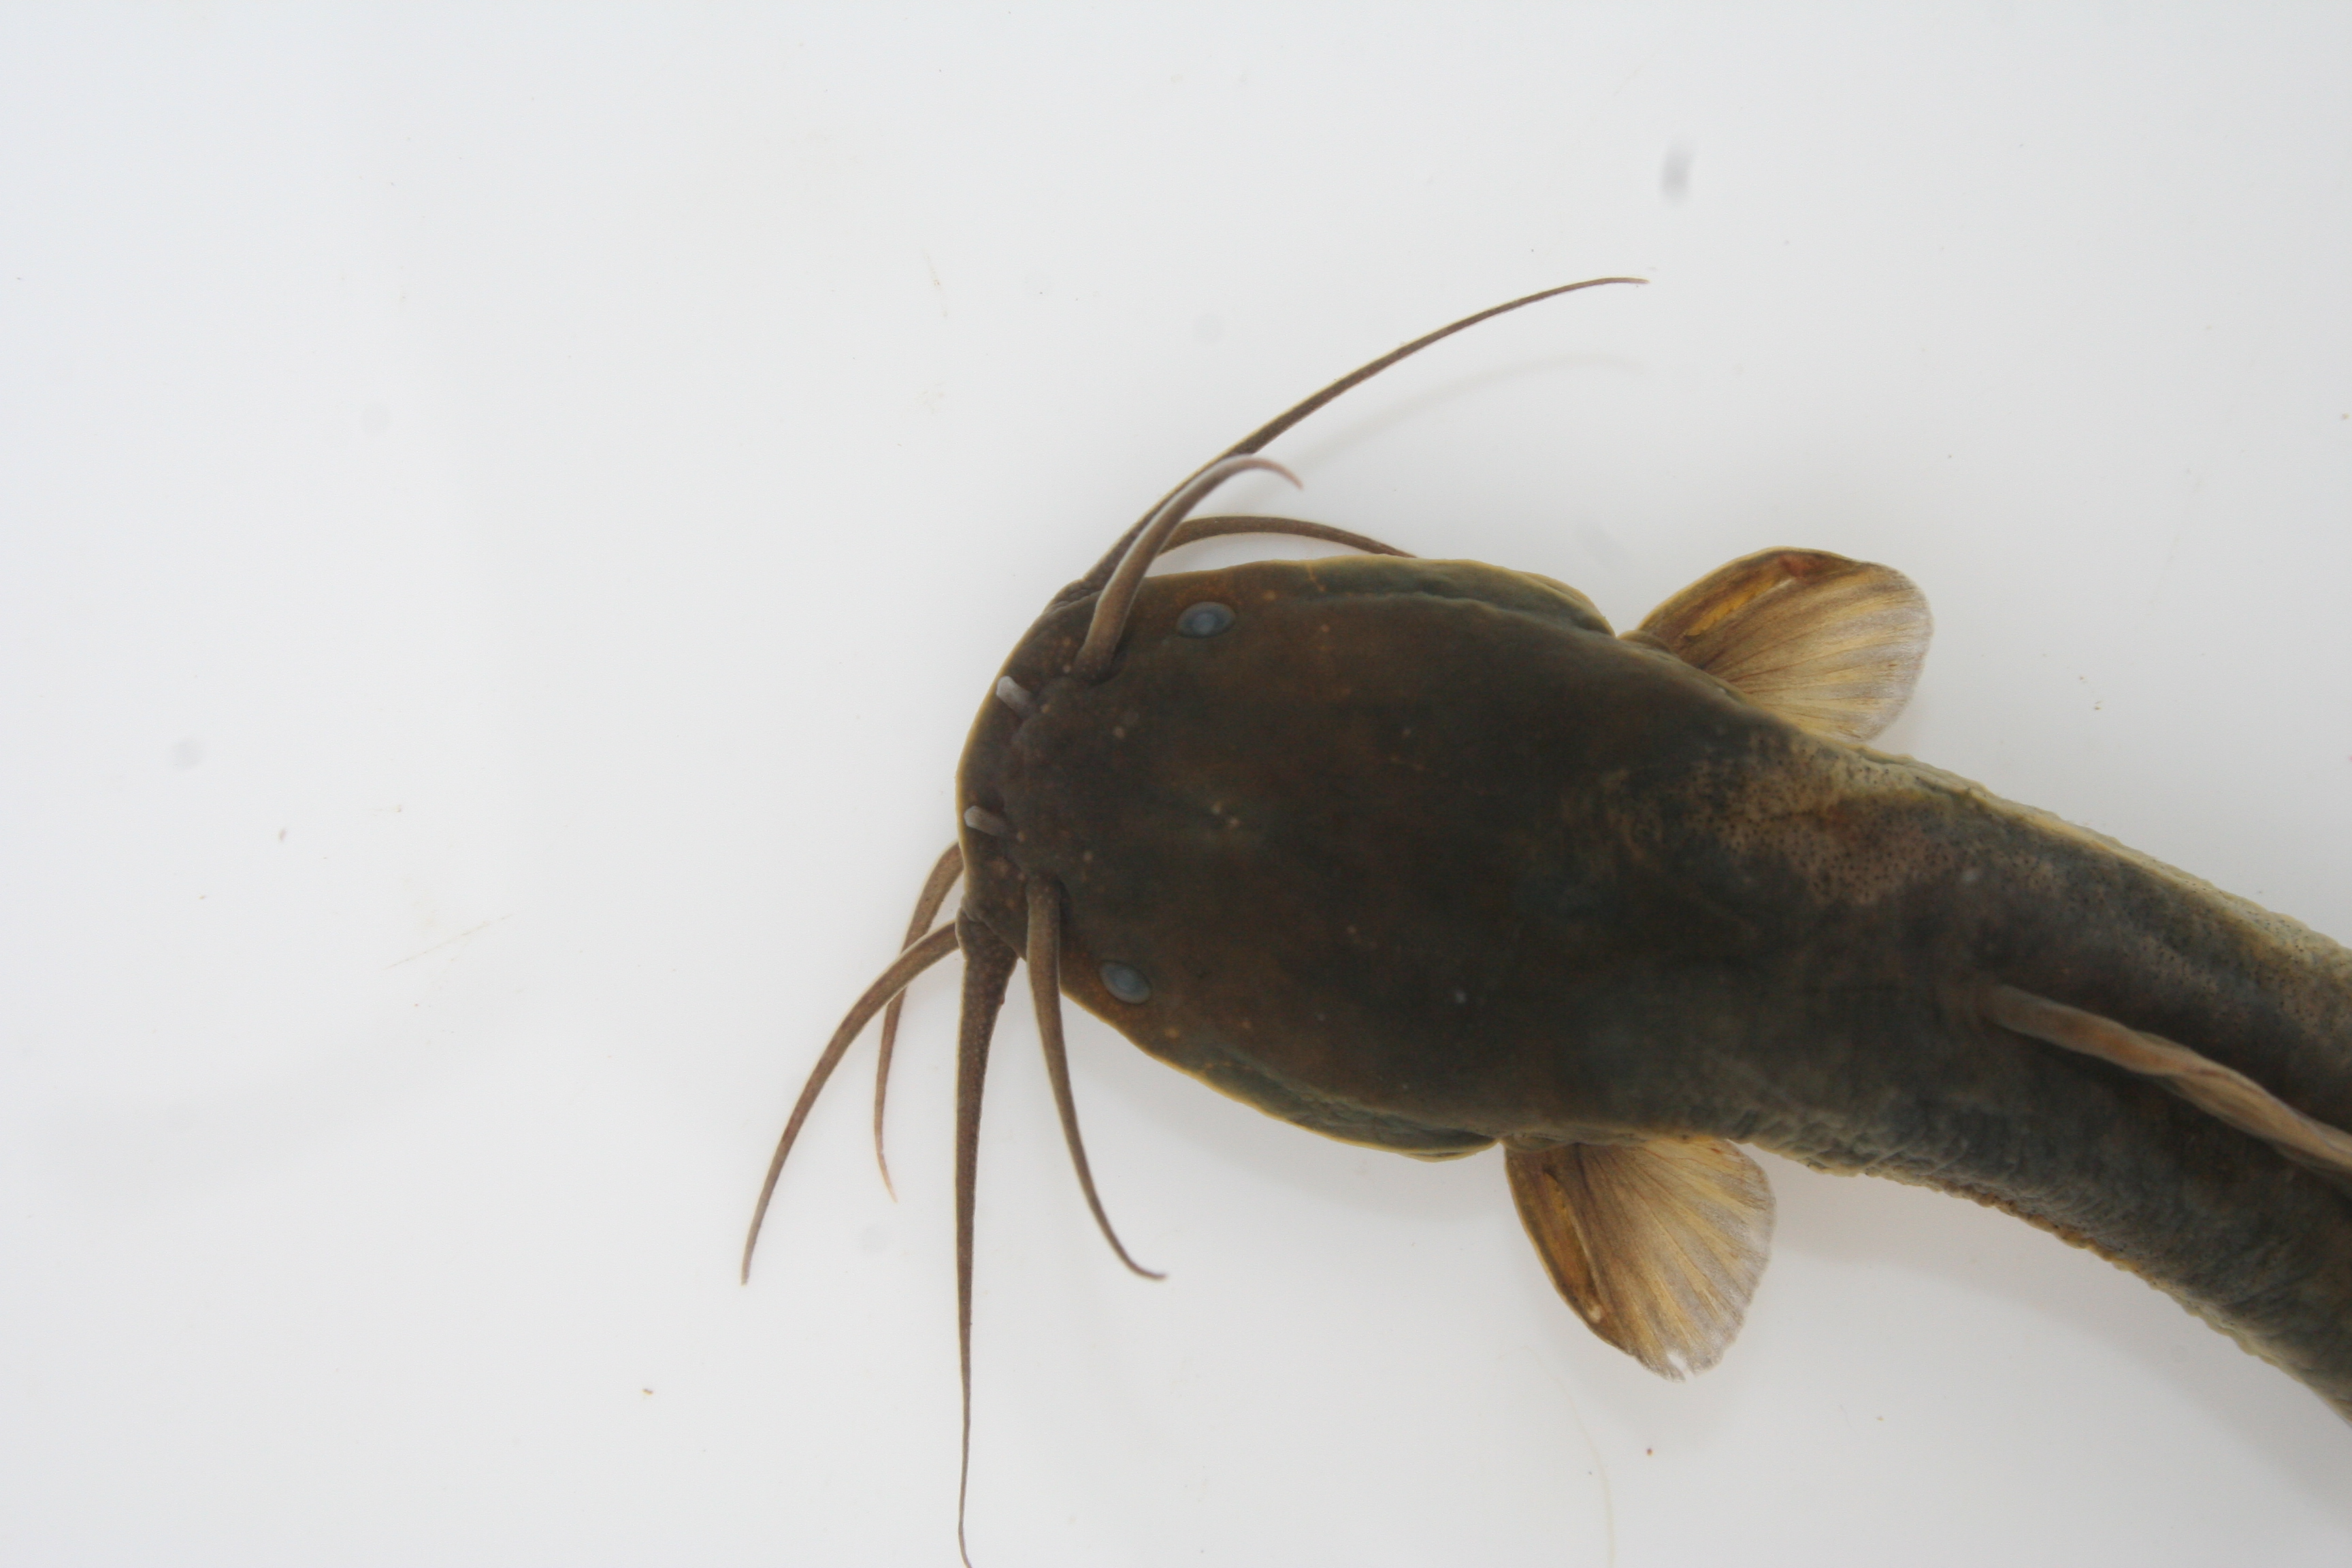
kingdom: Animalia
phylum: Chordata
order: Siluriformes
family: Clariidae
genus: Clariallabes
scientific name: Clariallabes
